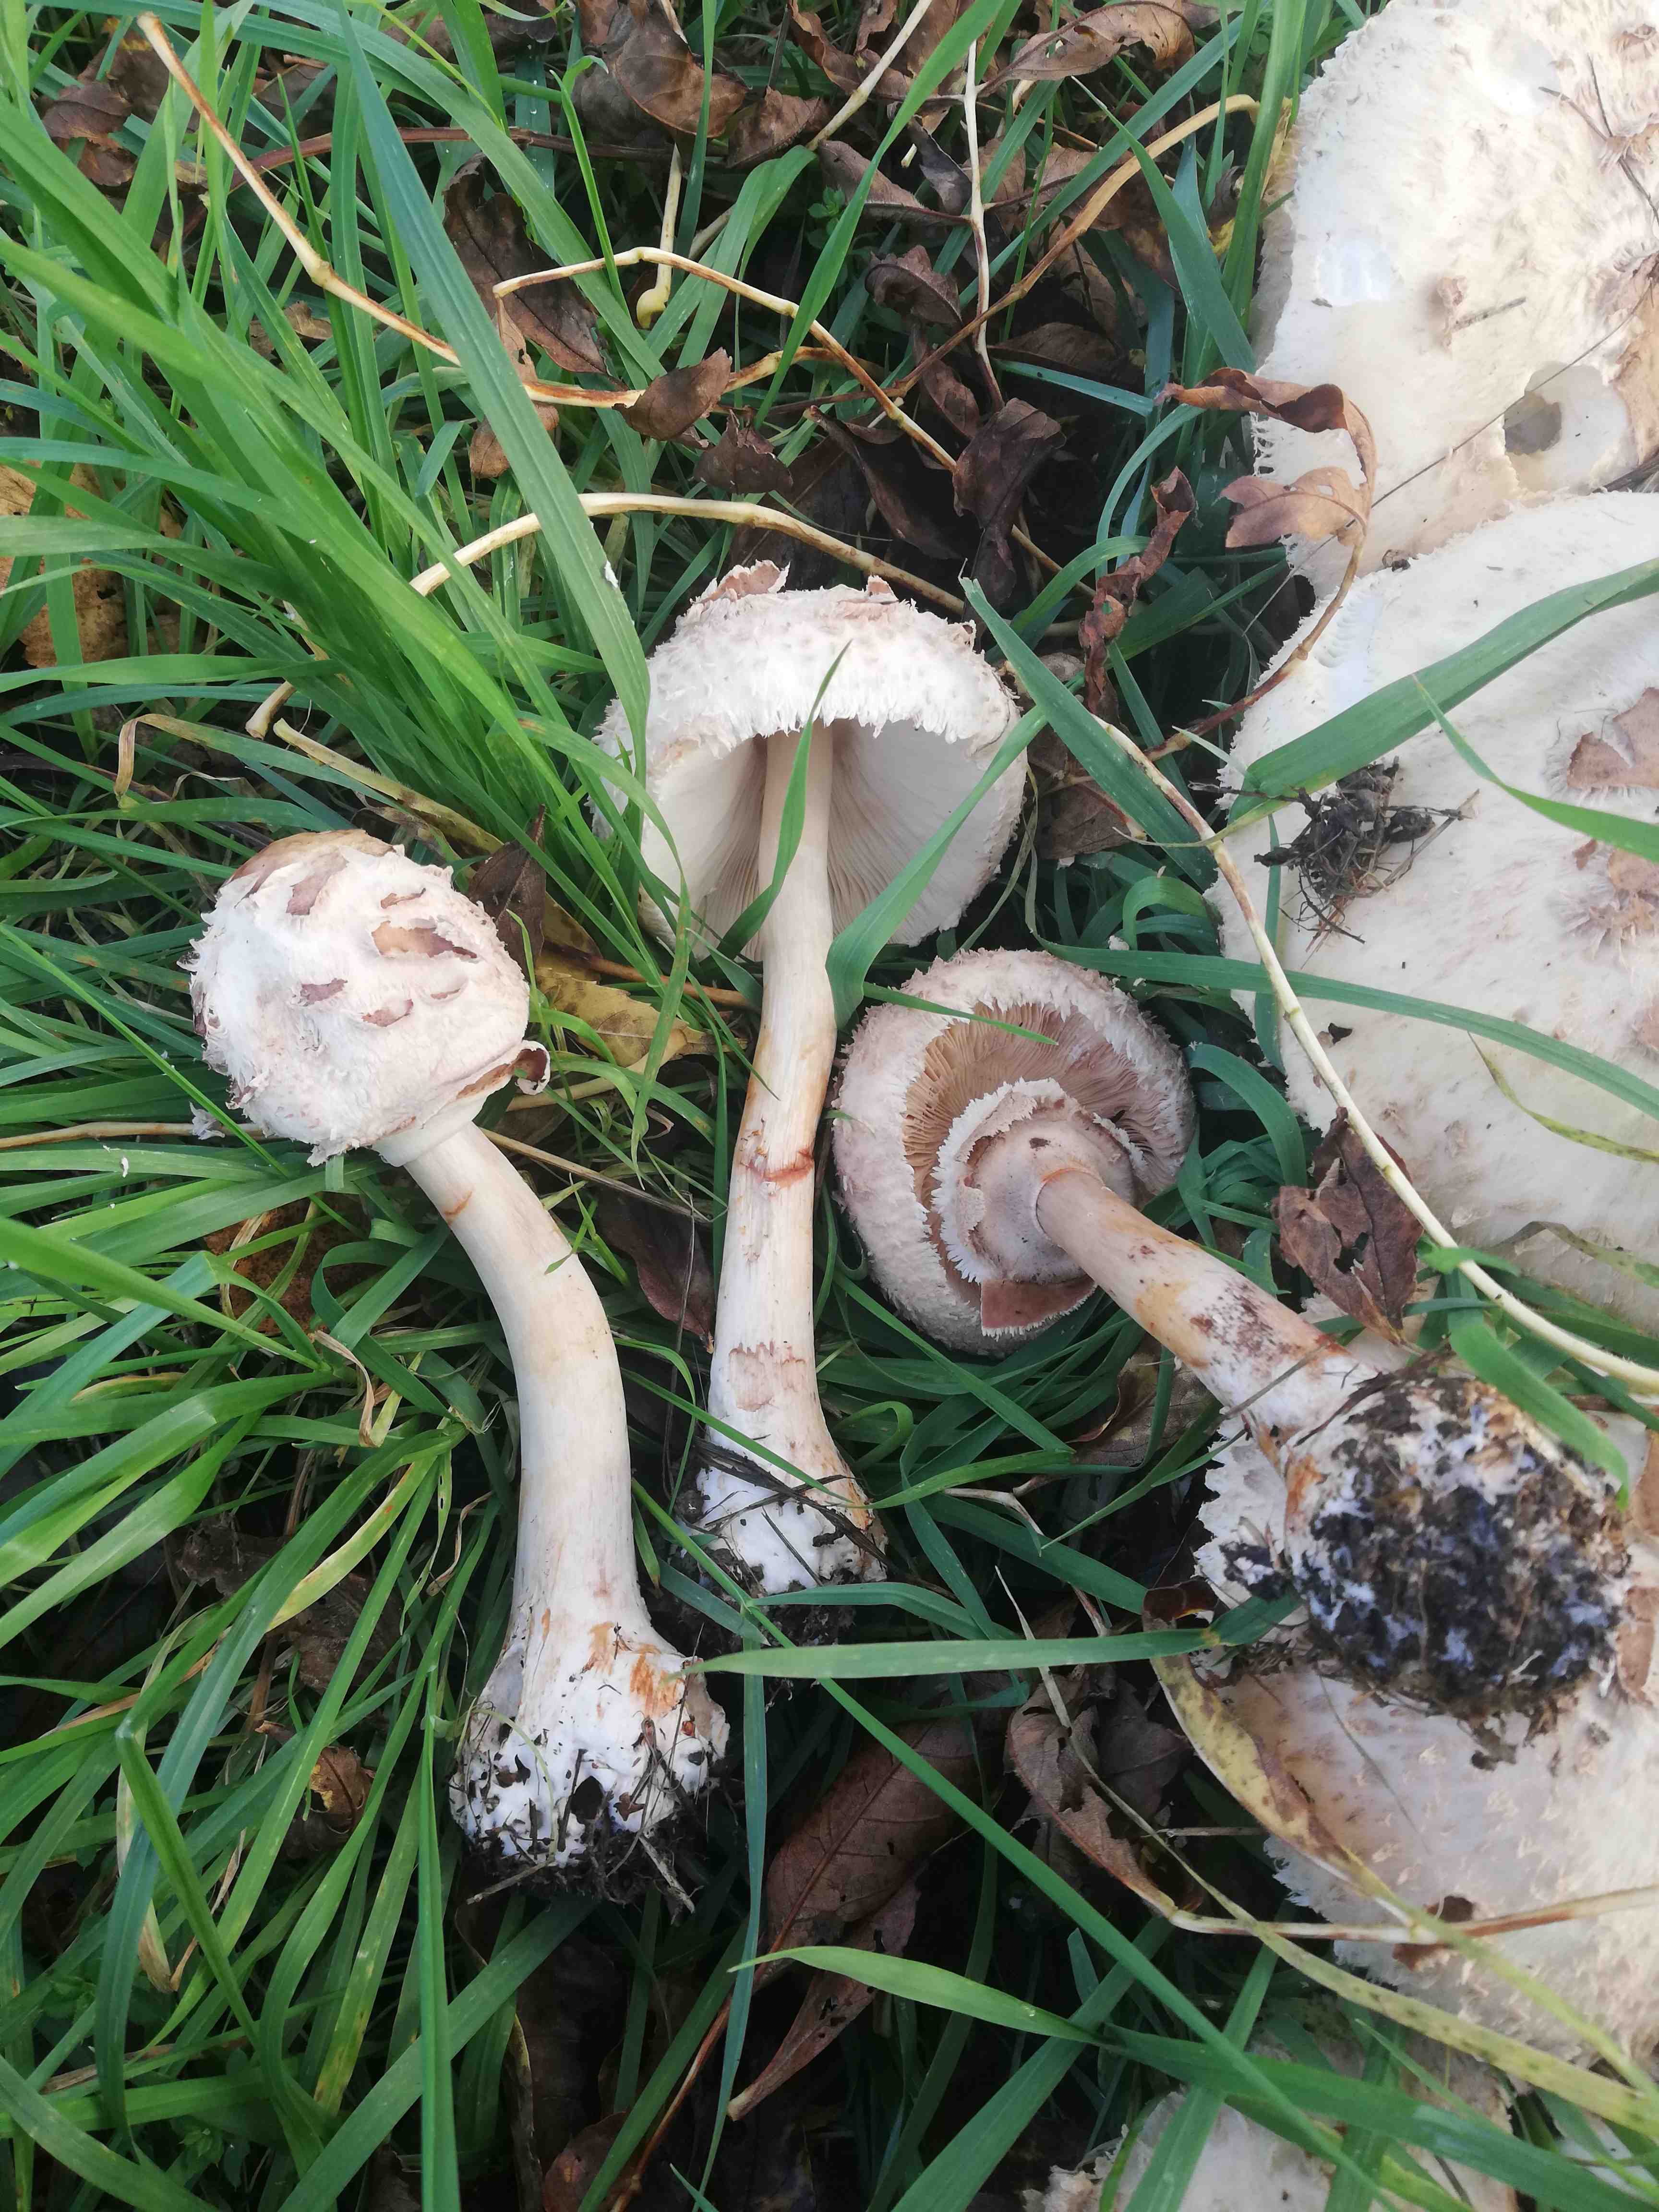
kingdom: Fungi
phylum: Basidiomycota
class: Agaricomycetes
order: Agaricales
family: Agaricaceae
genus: Chlorophyllum
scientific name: Chlorophyllum rhacodes
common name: ægte rabarberhat
